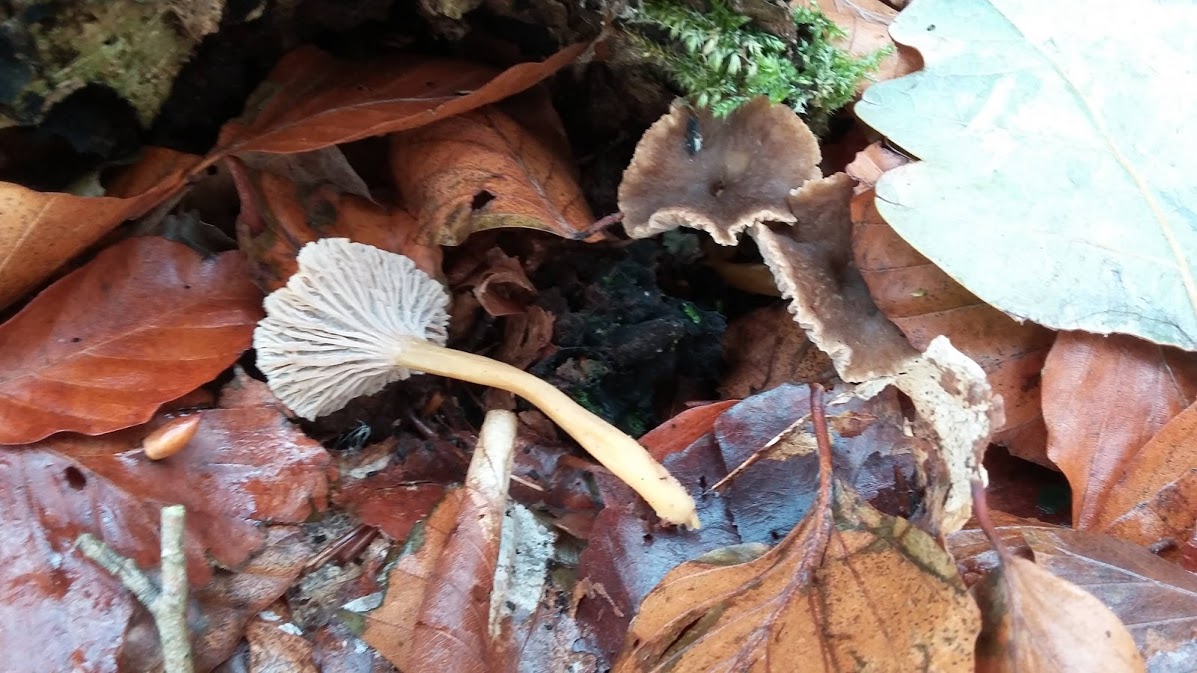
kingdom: Fungi
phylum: Basidiomycota
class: Agaricomycetes
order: Cantharellales
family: Hydnaceae
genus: Craterellus
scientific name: Craterellus tubaeformis
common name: tragt-kantarel
